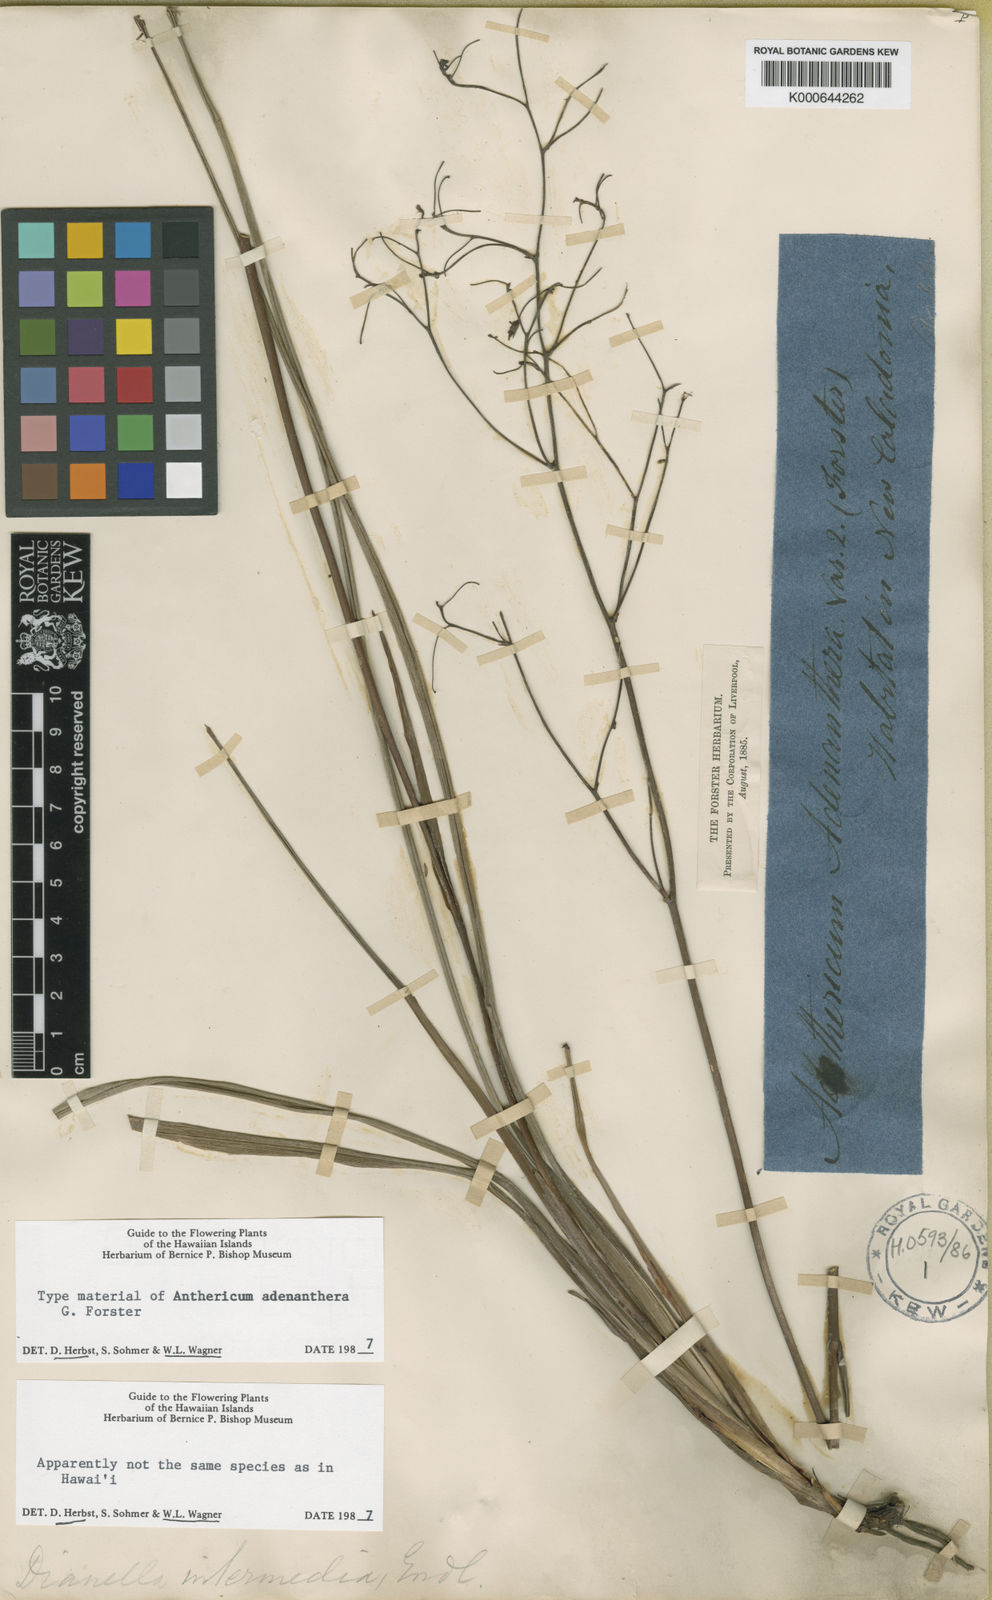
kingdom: Plantae
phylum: Tracheophyta
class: Liliopsida
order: Asparagales
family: Asphodelaceae
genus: Dianella
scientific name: Dianella adenanthera
